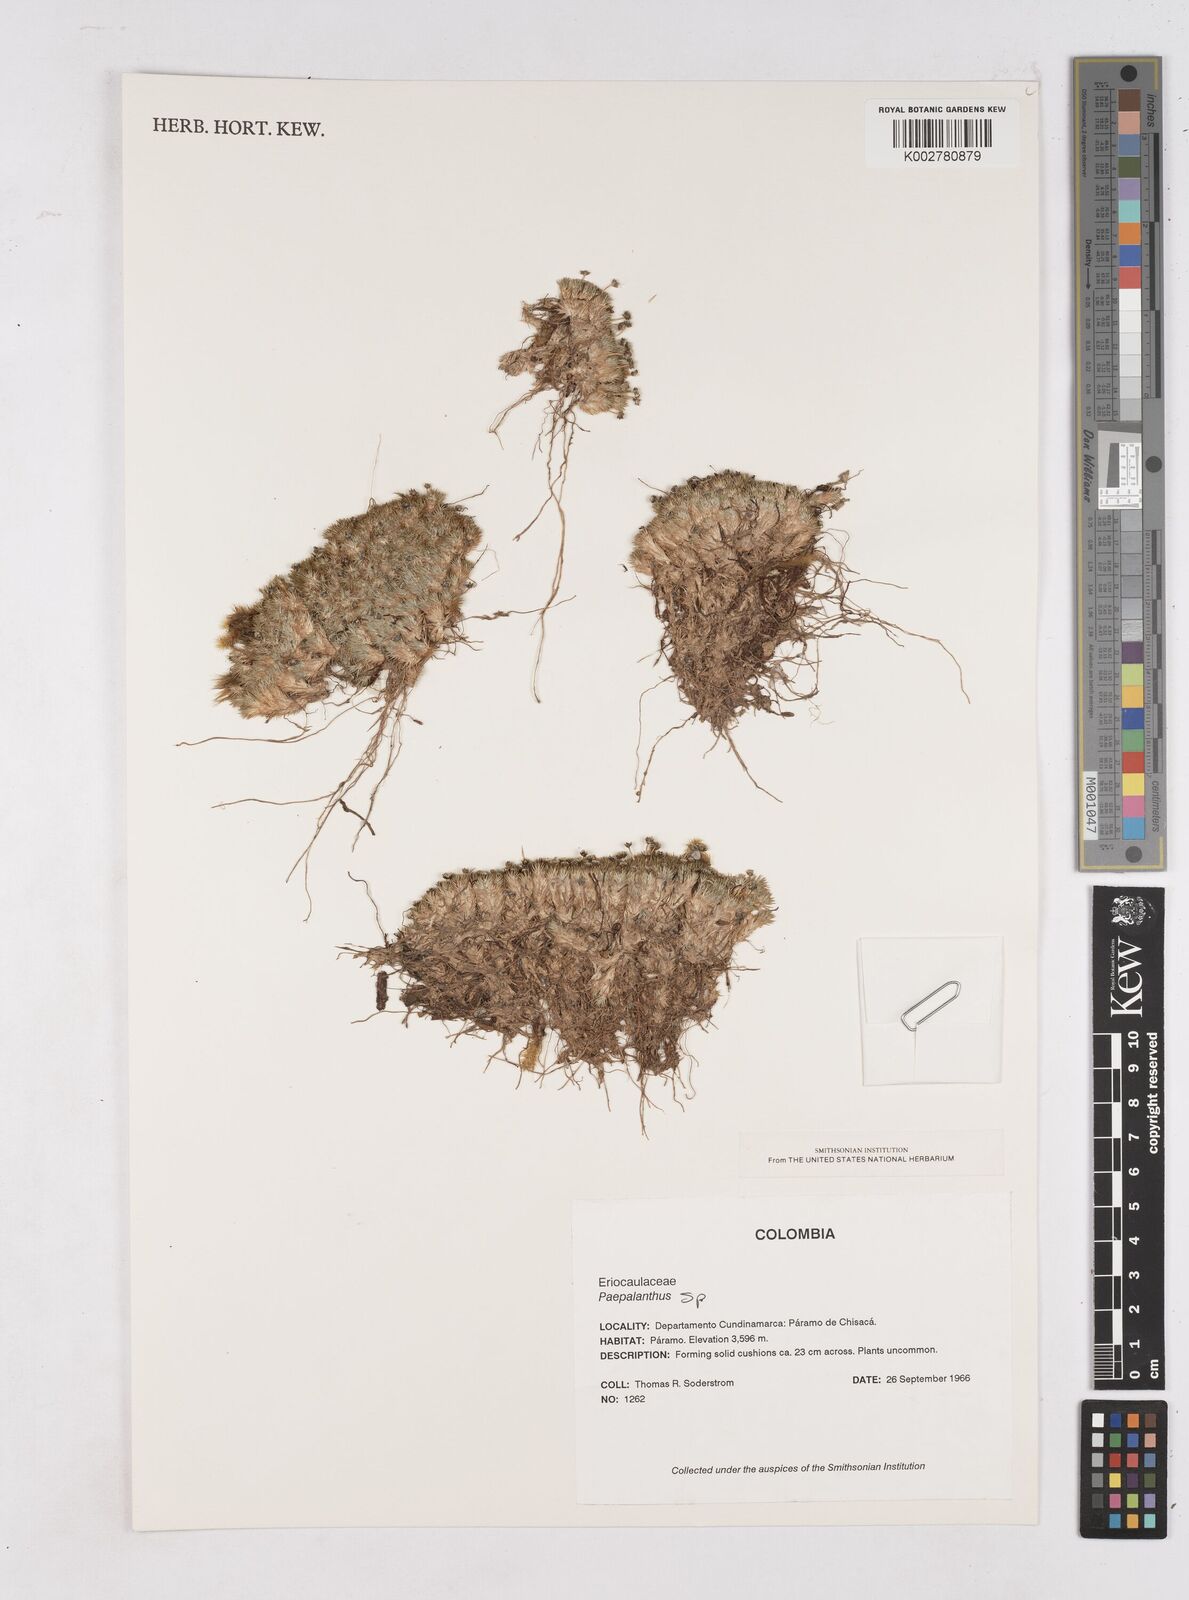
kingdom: Plantae
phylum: Tracheophyta
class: Liliopsida
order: Poales
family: Eriocaulaceae
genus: Paepalanthus
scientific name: Paepalanthus
